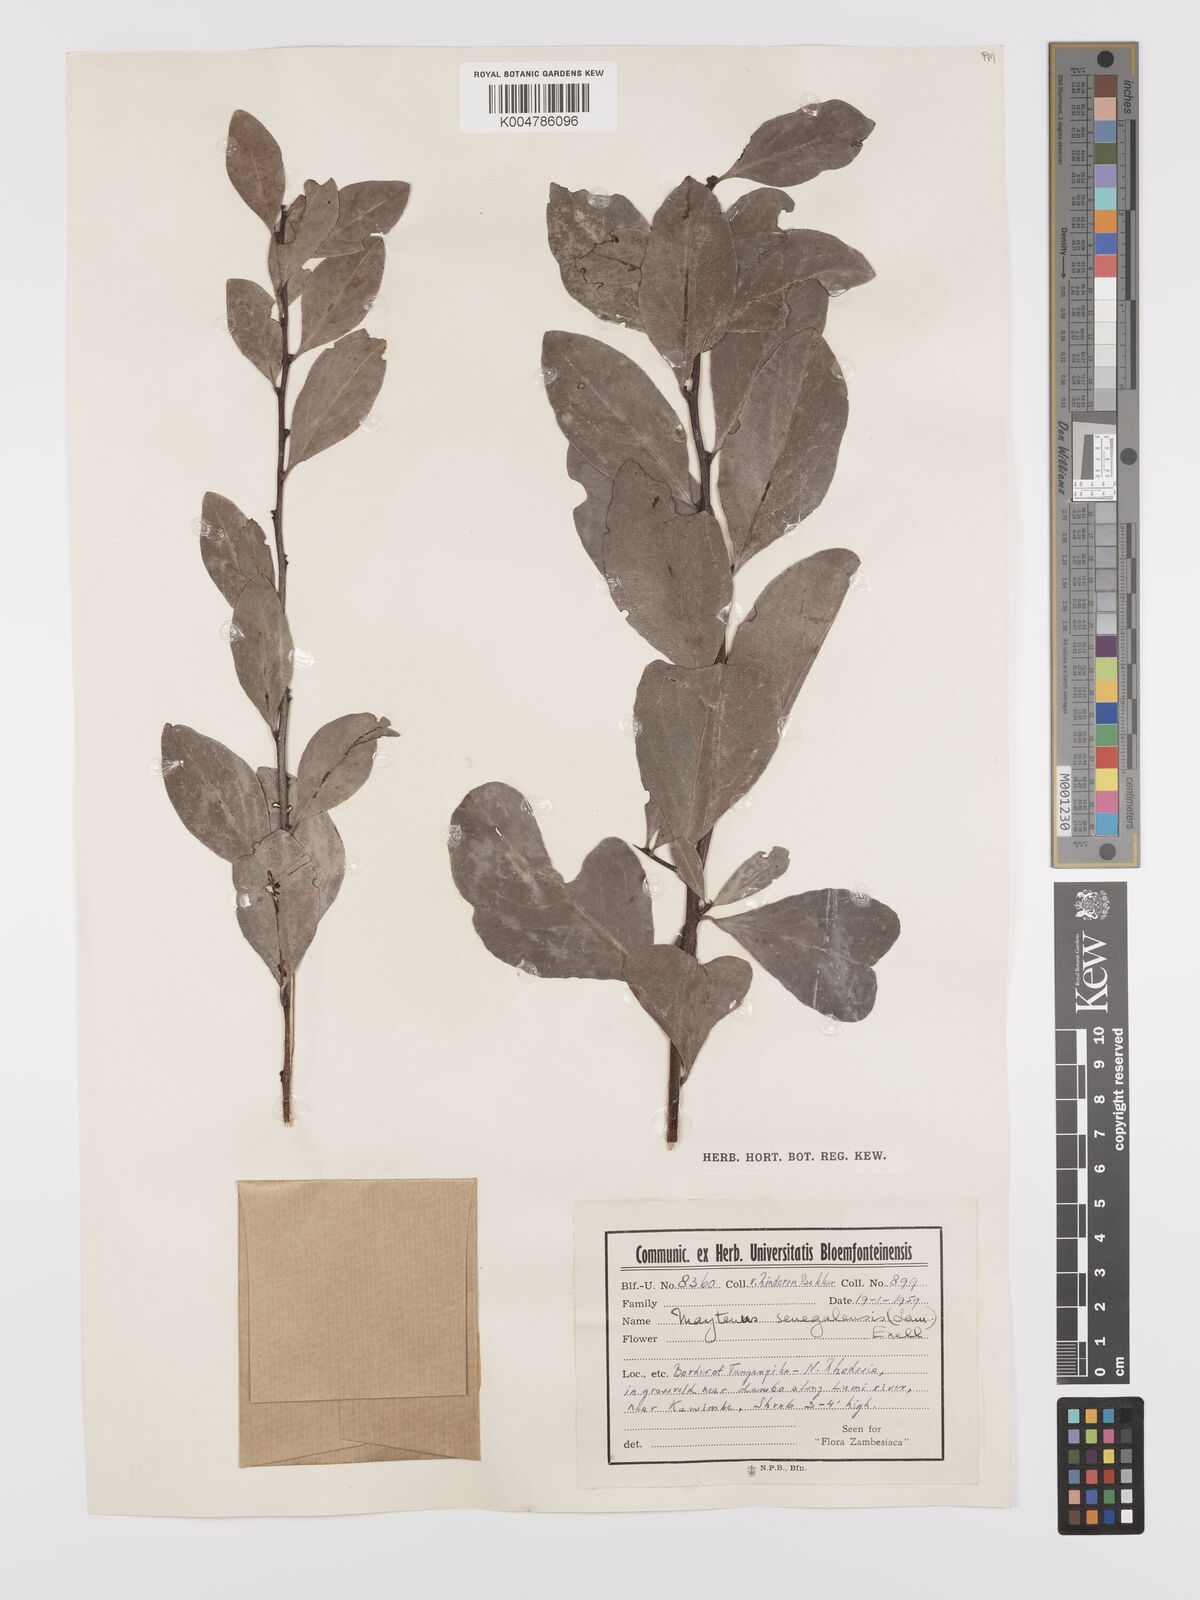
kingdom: Plantae
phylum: Tracheophyta
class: Magnoliopsida
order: Celastrales
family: Celastraceae
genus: Gymnosporia
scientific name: Gymnosporia senegalensis
